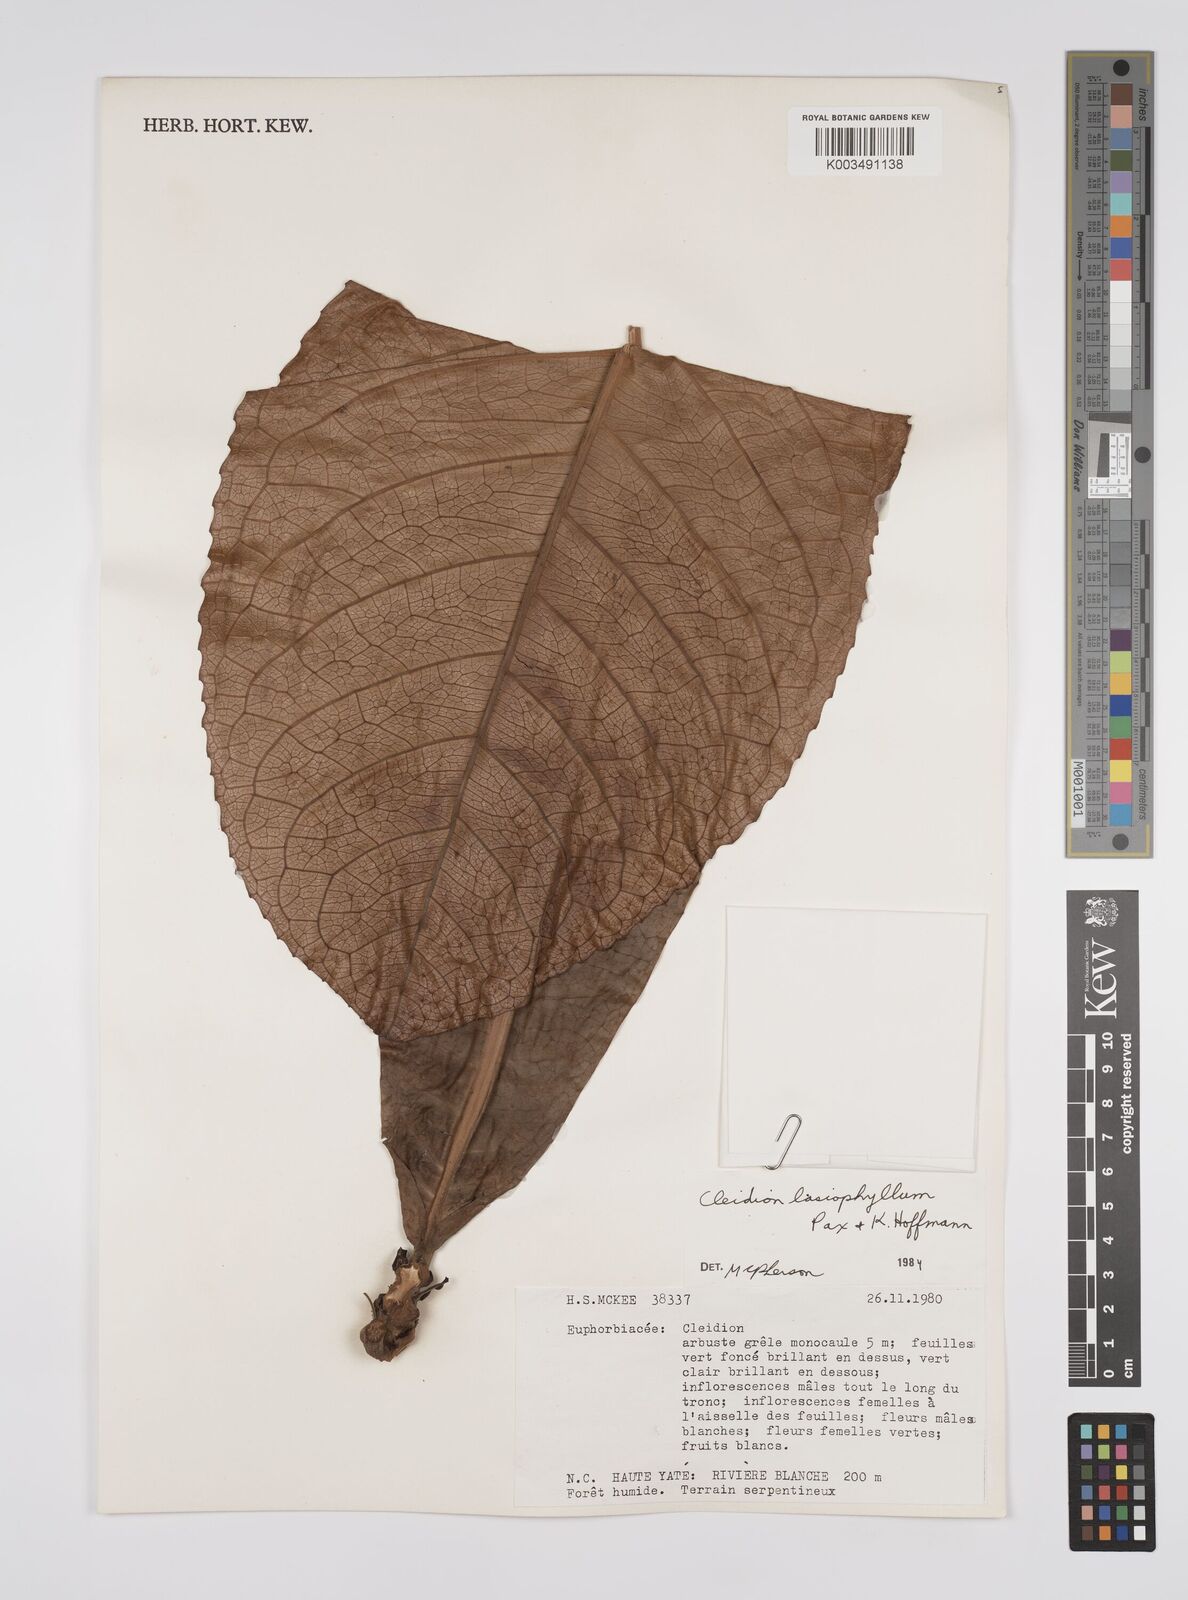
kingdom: Plantae
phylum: Tracheophyta
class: Magnoliopsida
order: Malpighiales
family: Euphorbiaceae
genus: Cleidion
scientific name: Cleidion lasiophyllum
